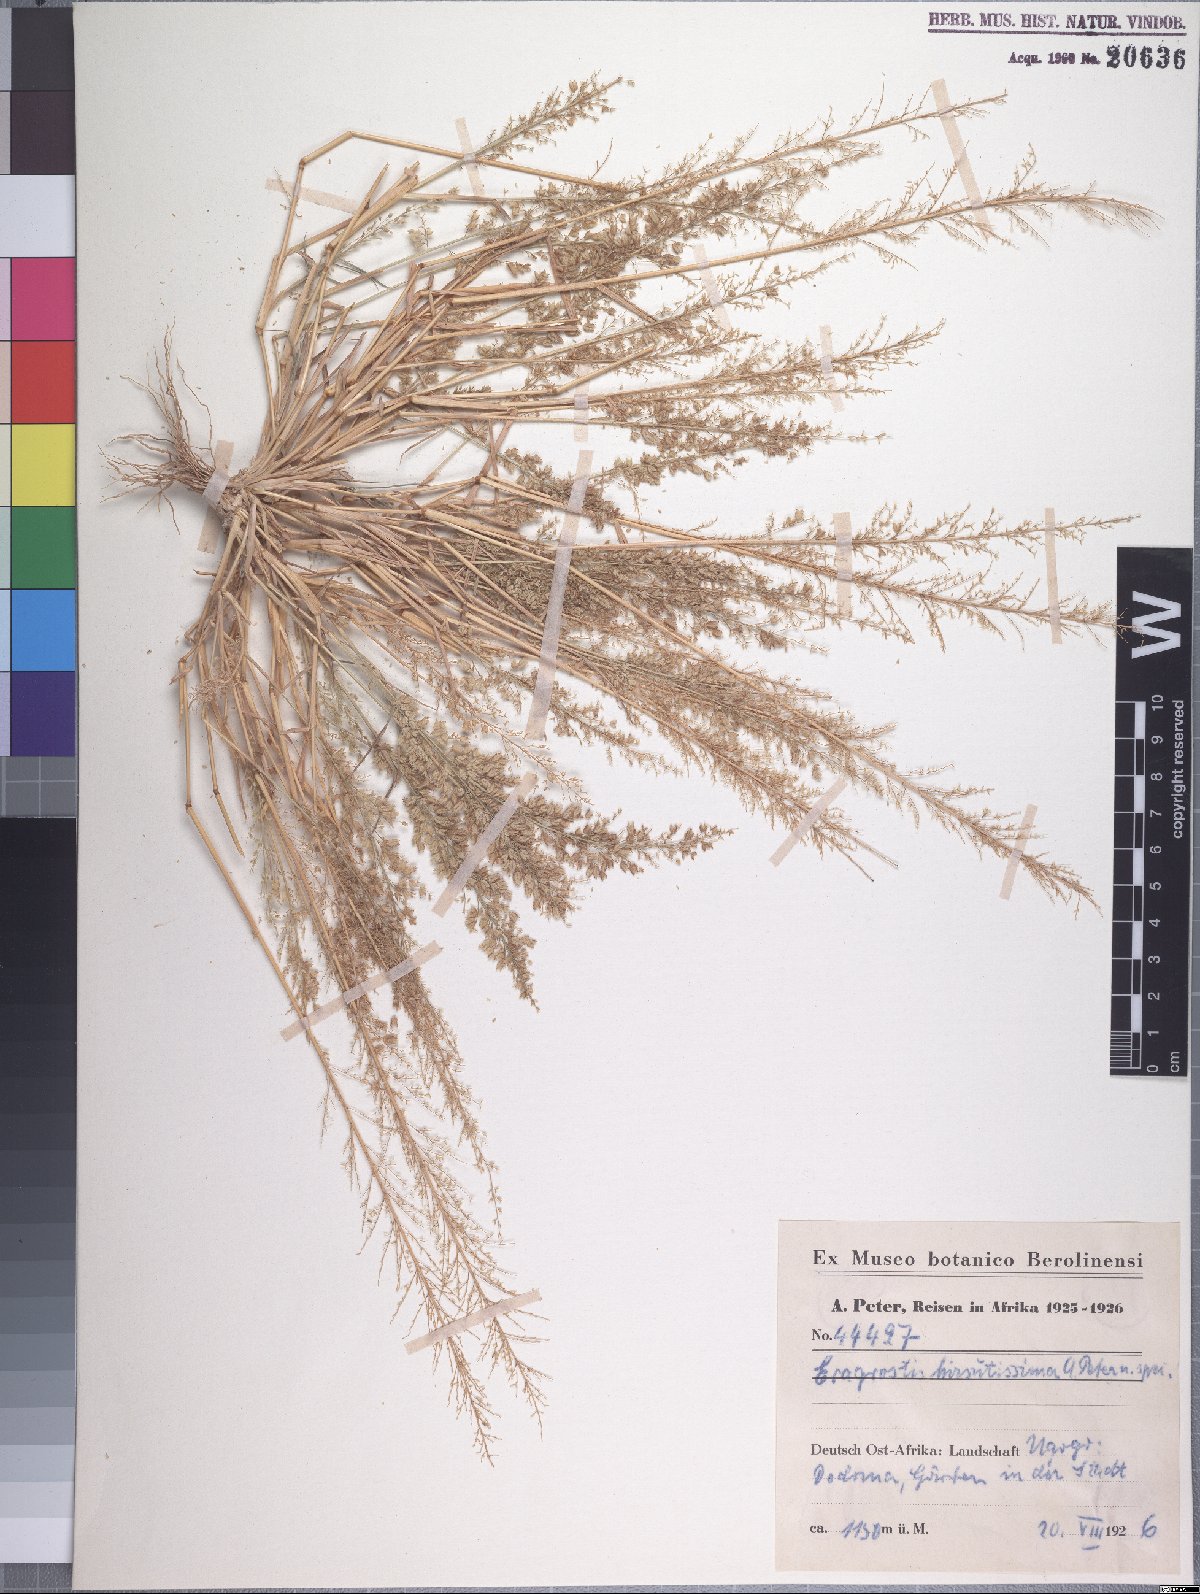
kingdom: Plantae
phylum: Tracheophyta
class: Liliopsida
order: Poales
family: Poaceae
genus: Eragrostis
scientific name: Eragrostis viscosa
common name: Sticky love grass
